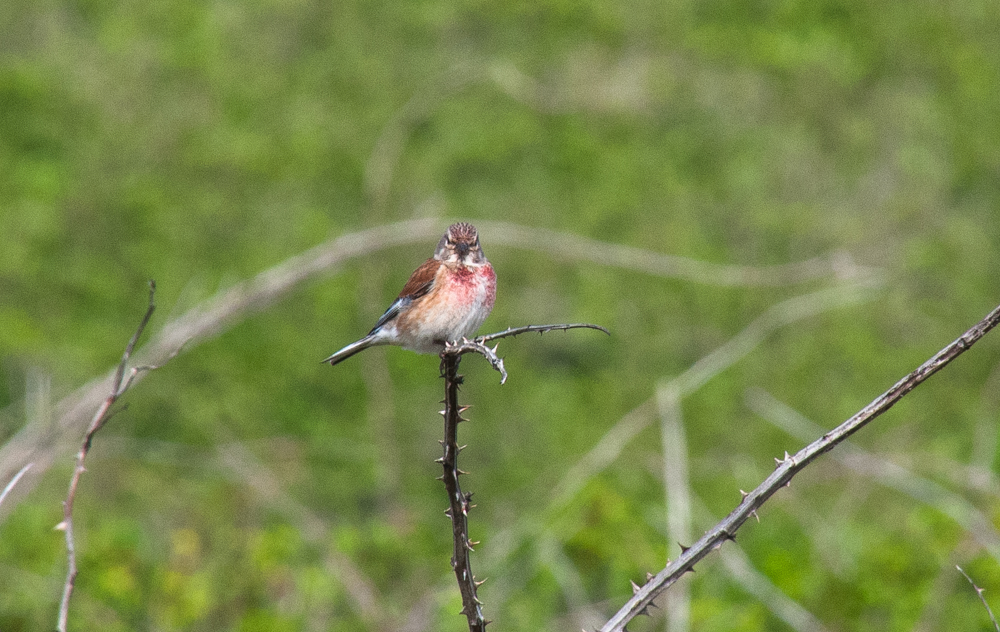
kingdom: Animalia
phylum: Chordata
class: Aves
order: Passeriformes
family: Fringillidae
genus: Linaria
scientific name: Linaria cannabina
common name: Common linnet
